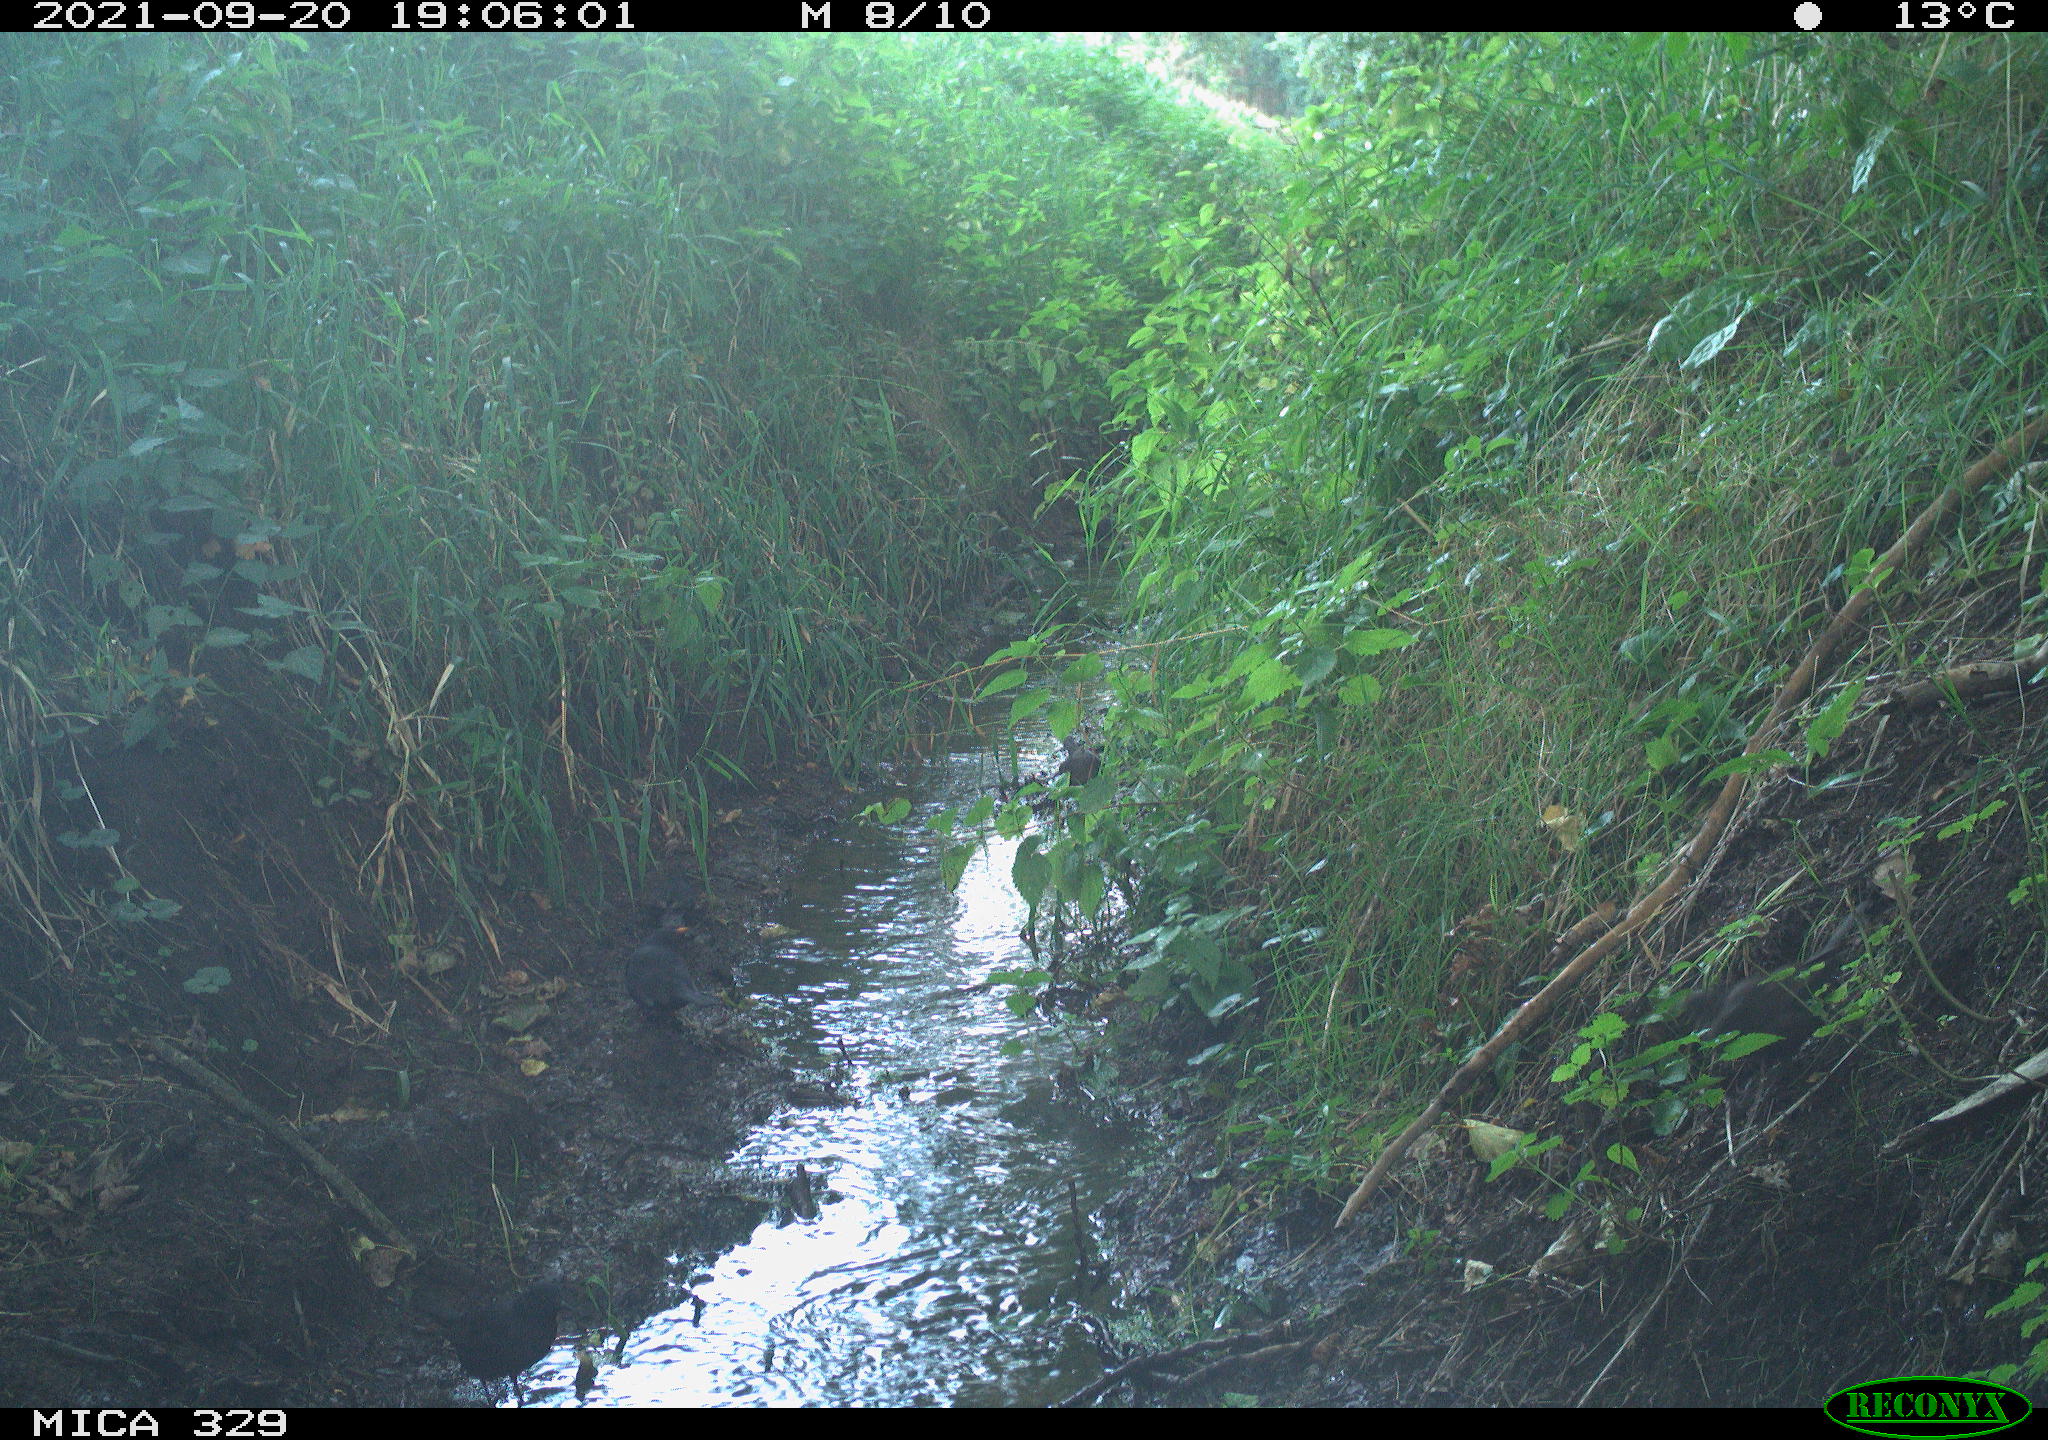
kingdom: Animalia
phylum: Chordata
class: Aves
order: Passeriformes
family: Turdidae
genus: Turdus
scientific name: Turdus merula
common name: Common blackbird
